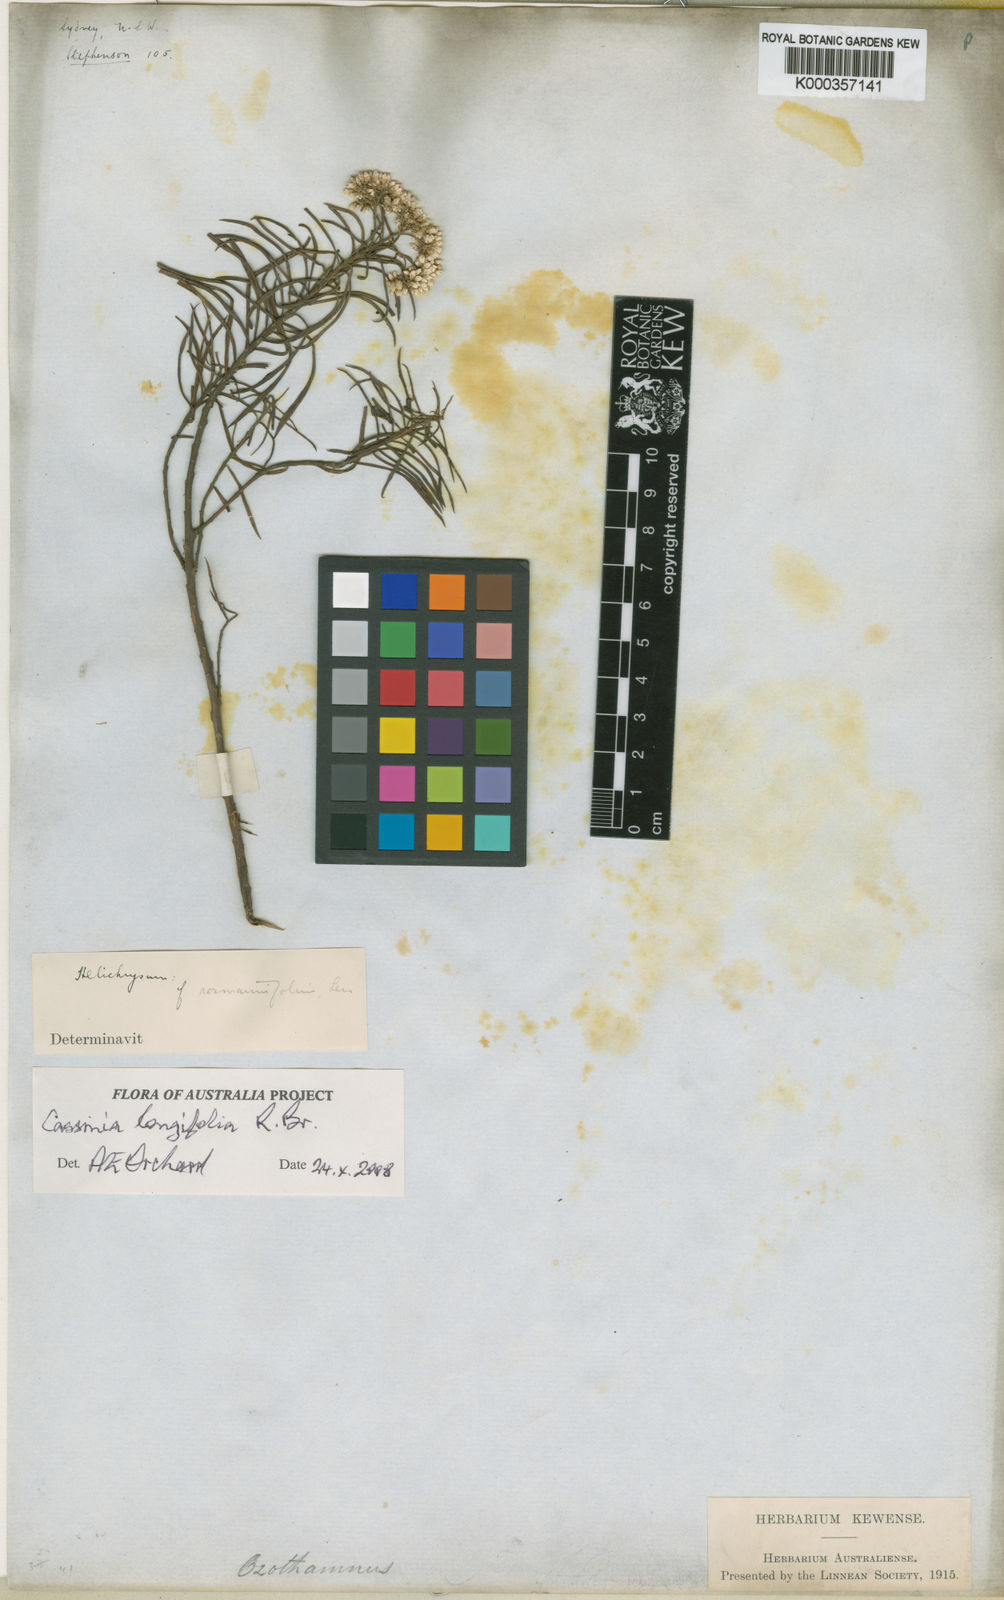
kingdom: Plantae
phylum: Tracheophyta
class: Magnoliopsida
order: Asterales
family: Asteraceae
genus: Cassinia
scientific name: Cassinia longifolia
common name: Longleaf-dogwood
